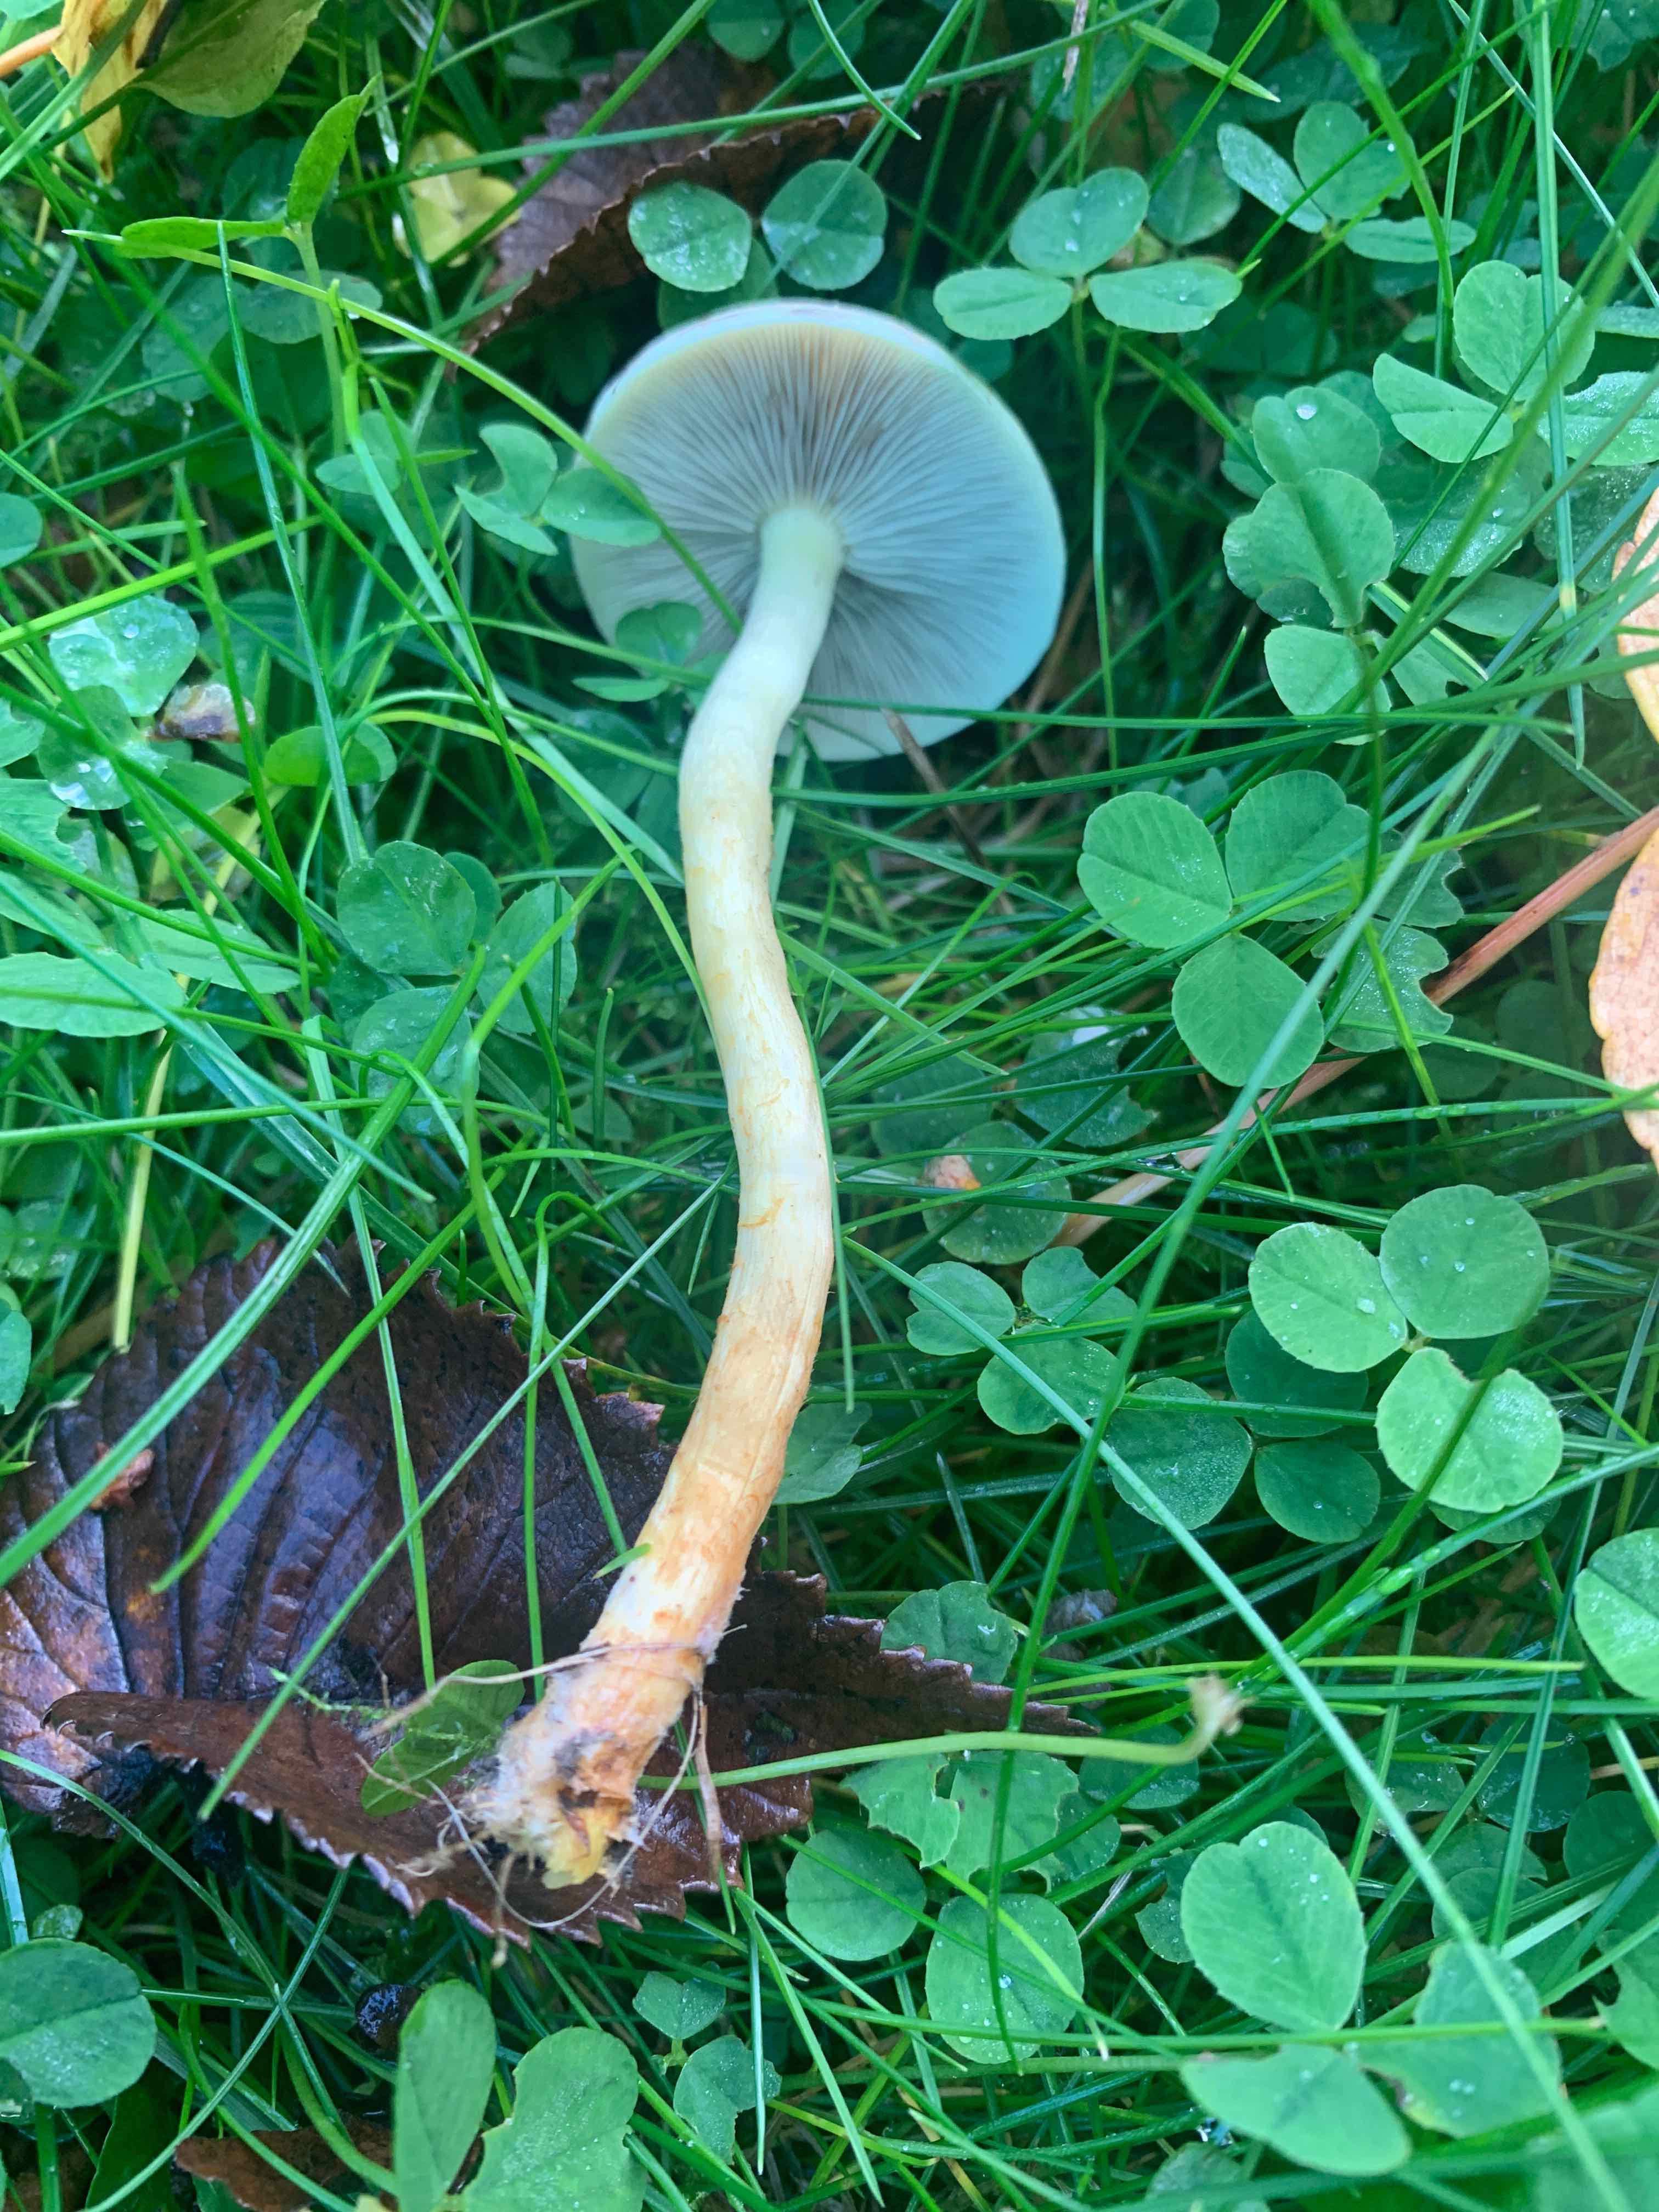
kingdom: Fungi
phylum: Basidiomycota
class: Agaricomycetes
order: Agaricales
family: Strophariaceae
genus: Hypholoma
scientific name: Hypholoma
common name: svovlhat
